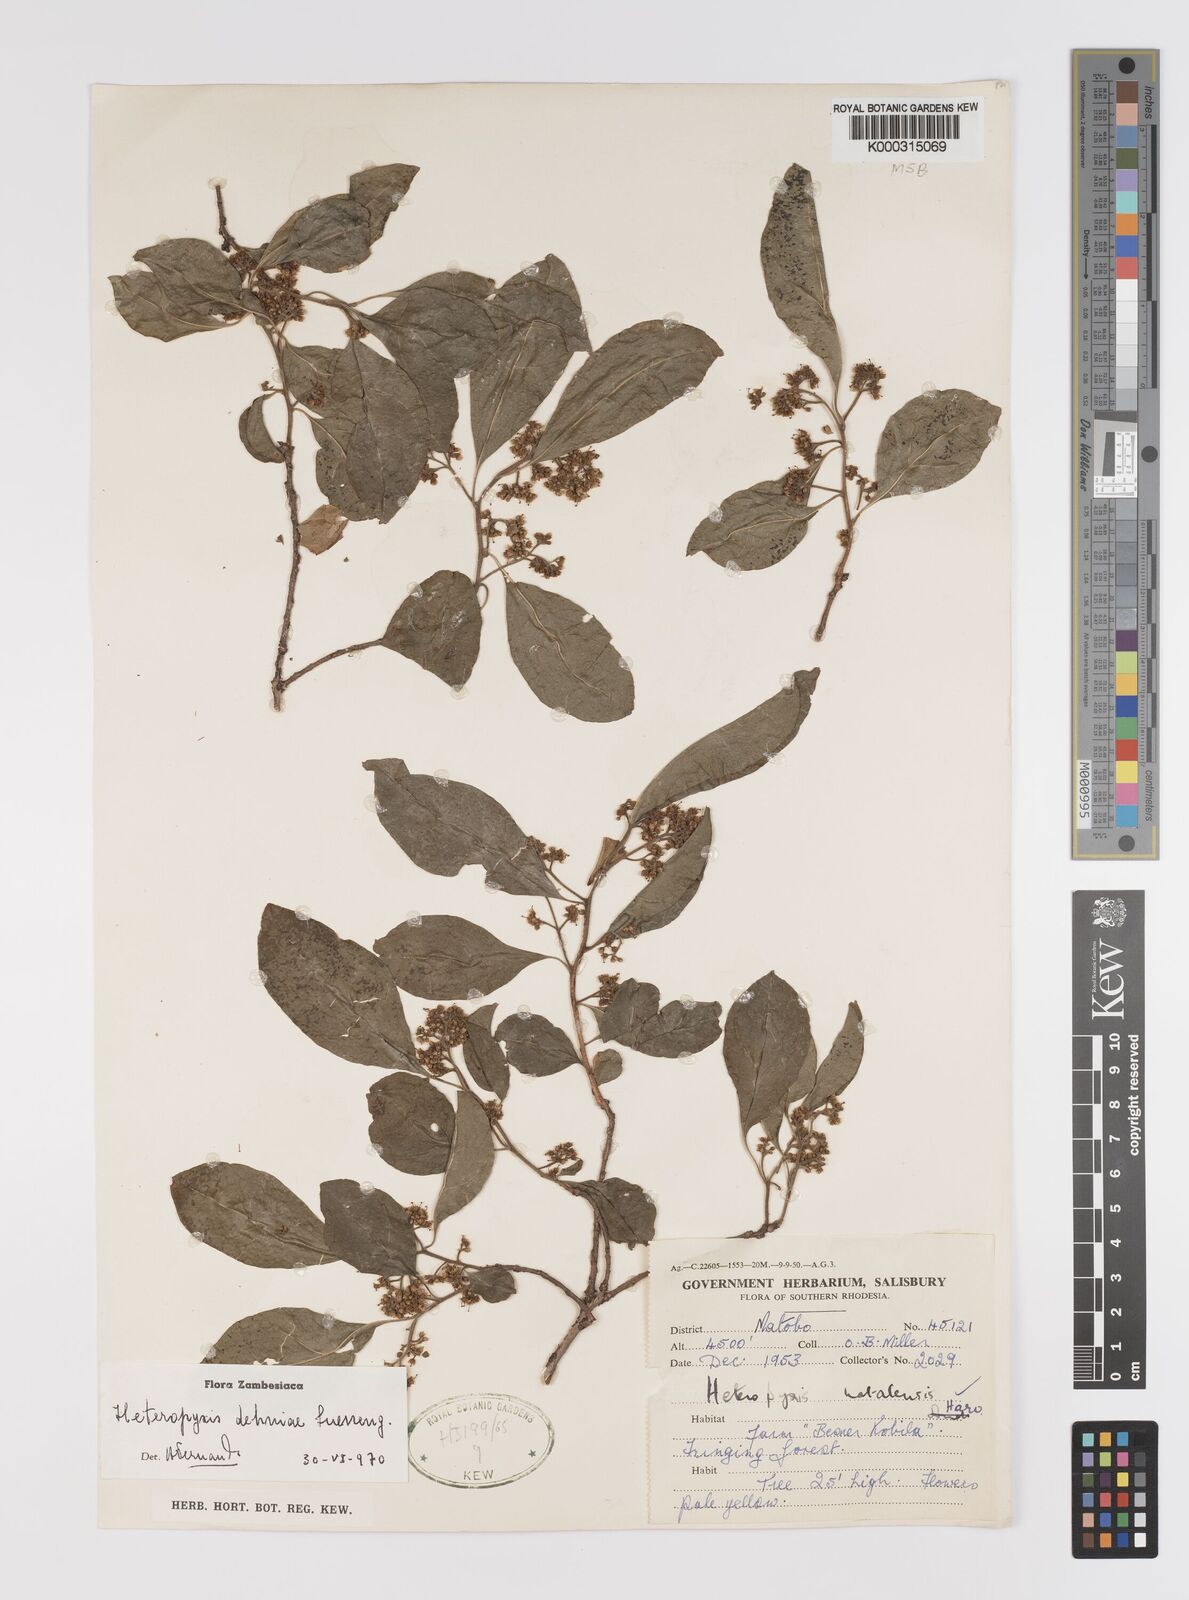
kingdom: Plantae
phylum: Tracheophyta
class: Magnoliopsida
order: Myrtales
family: Myrtaceae
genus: Heteropyxis
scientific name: Heteropyxis dehniae
